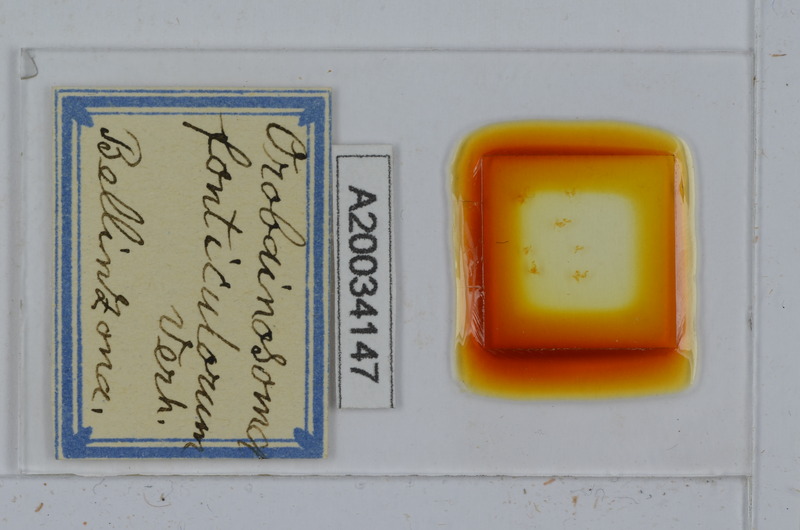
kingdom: Animalia
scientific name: Animalia
